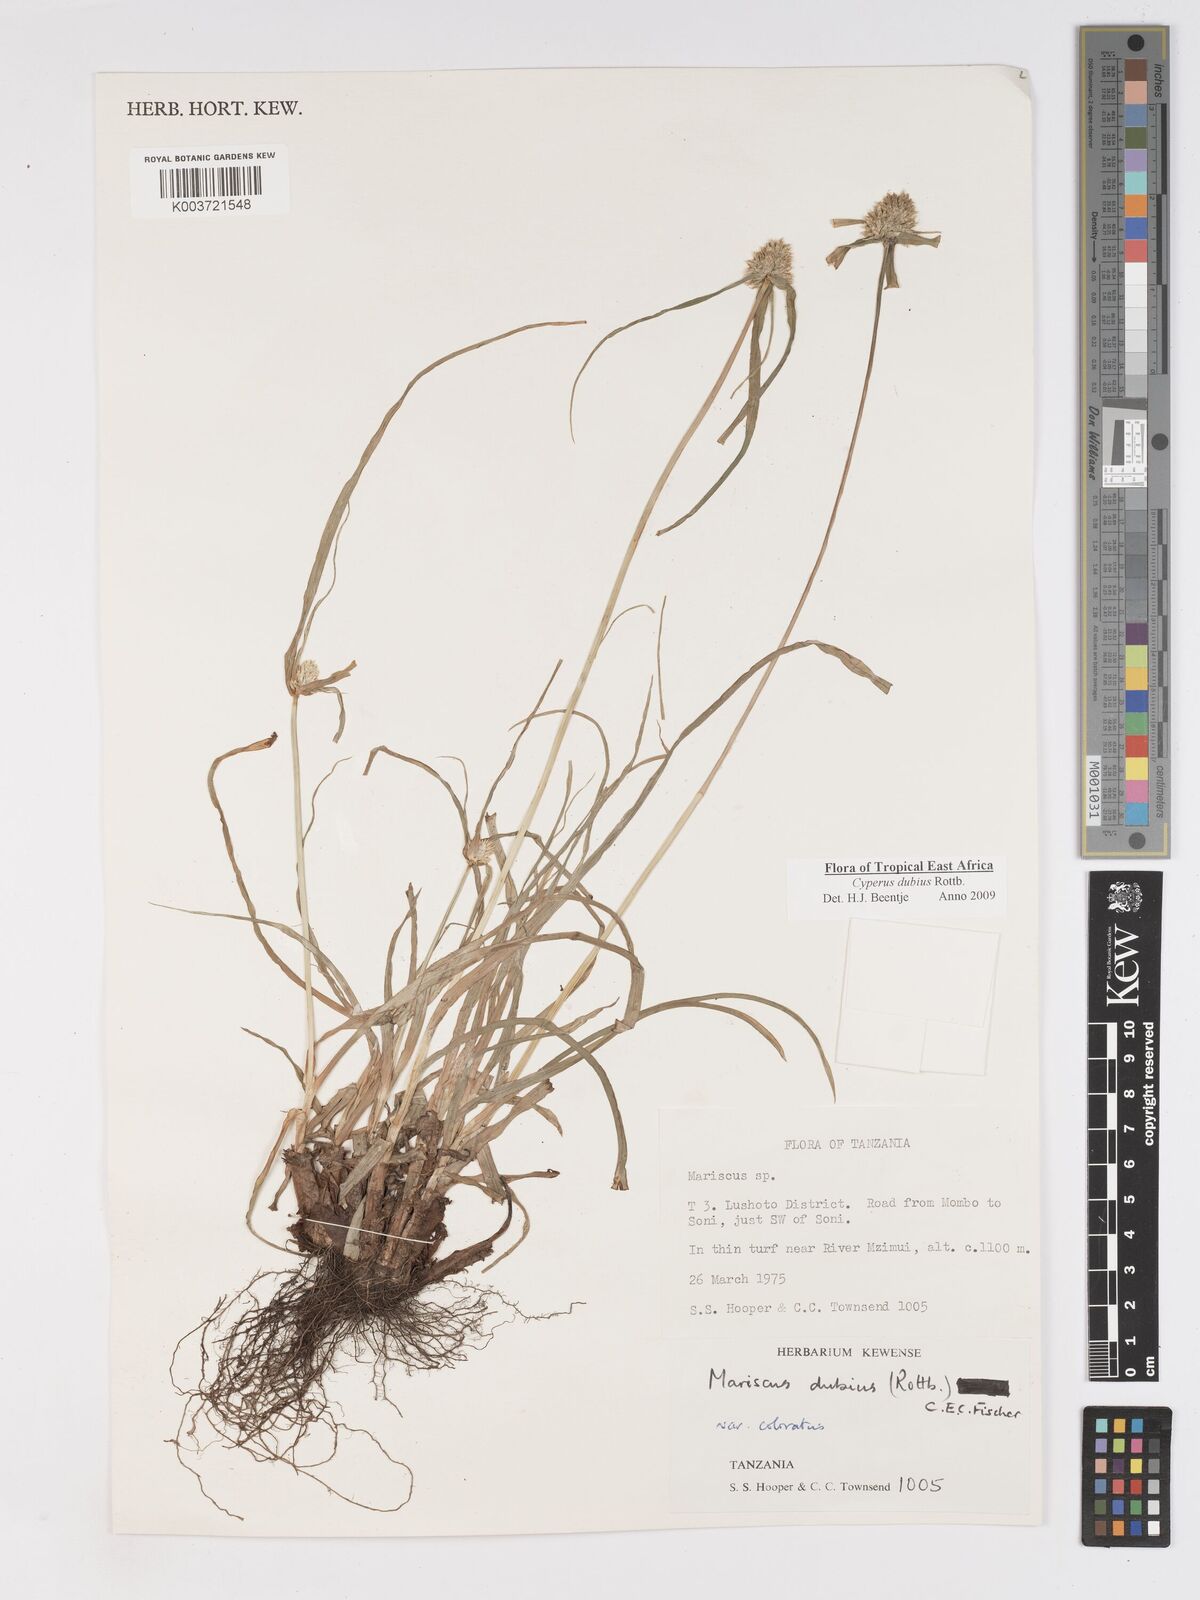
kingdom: Plantae
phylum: Tracheophyta
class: Liliopsida
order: Poales
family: Cyperaceae
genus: Cyperus
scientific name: Cyperus dubius
